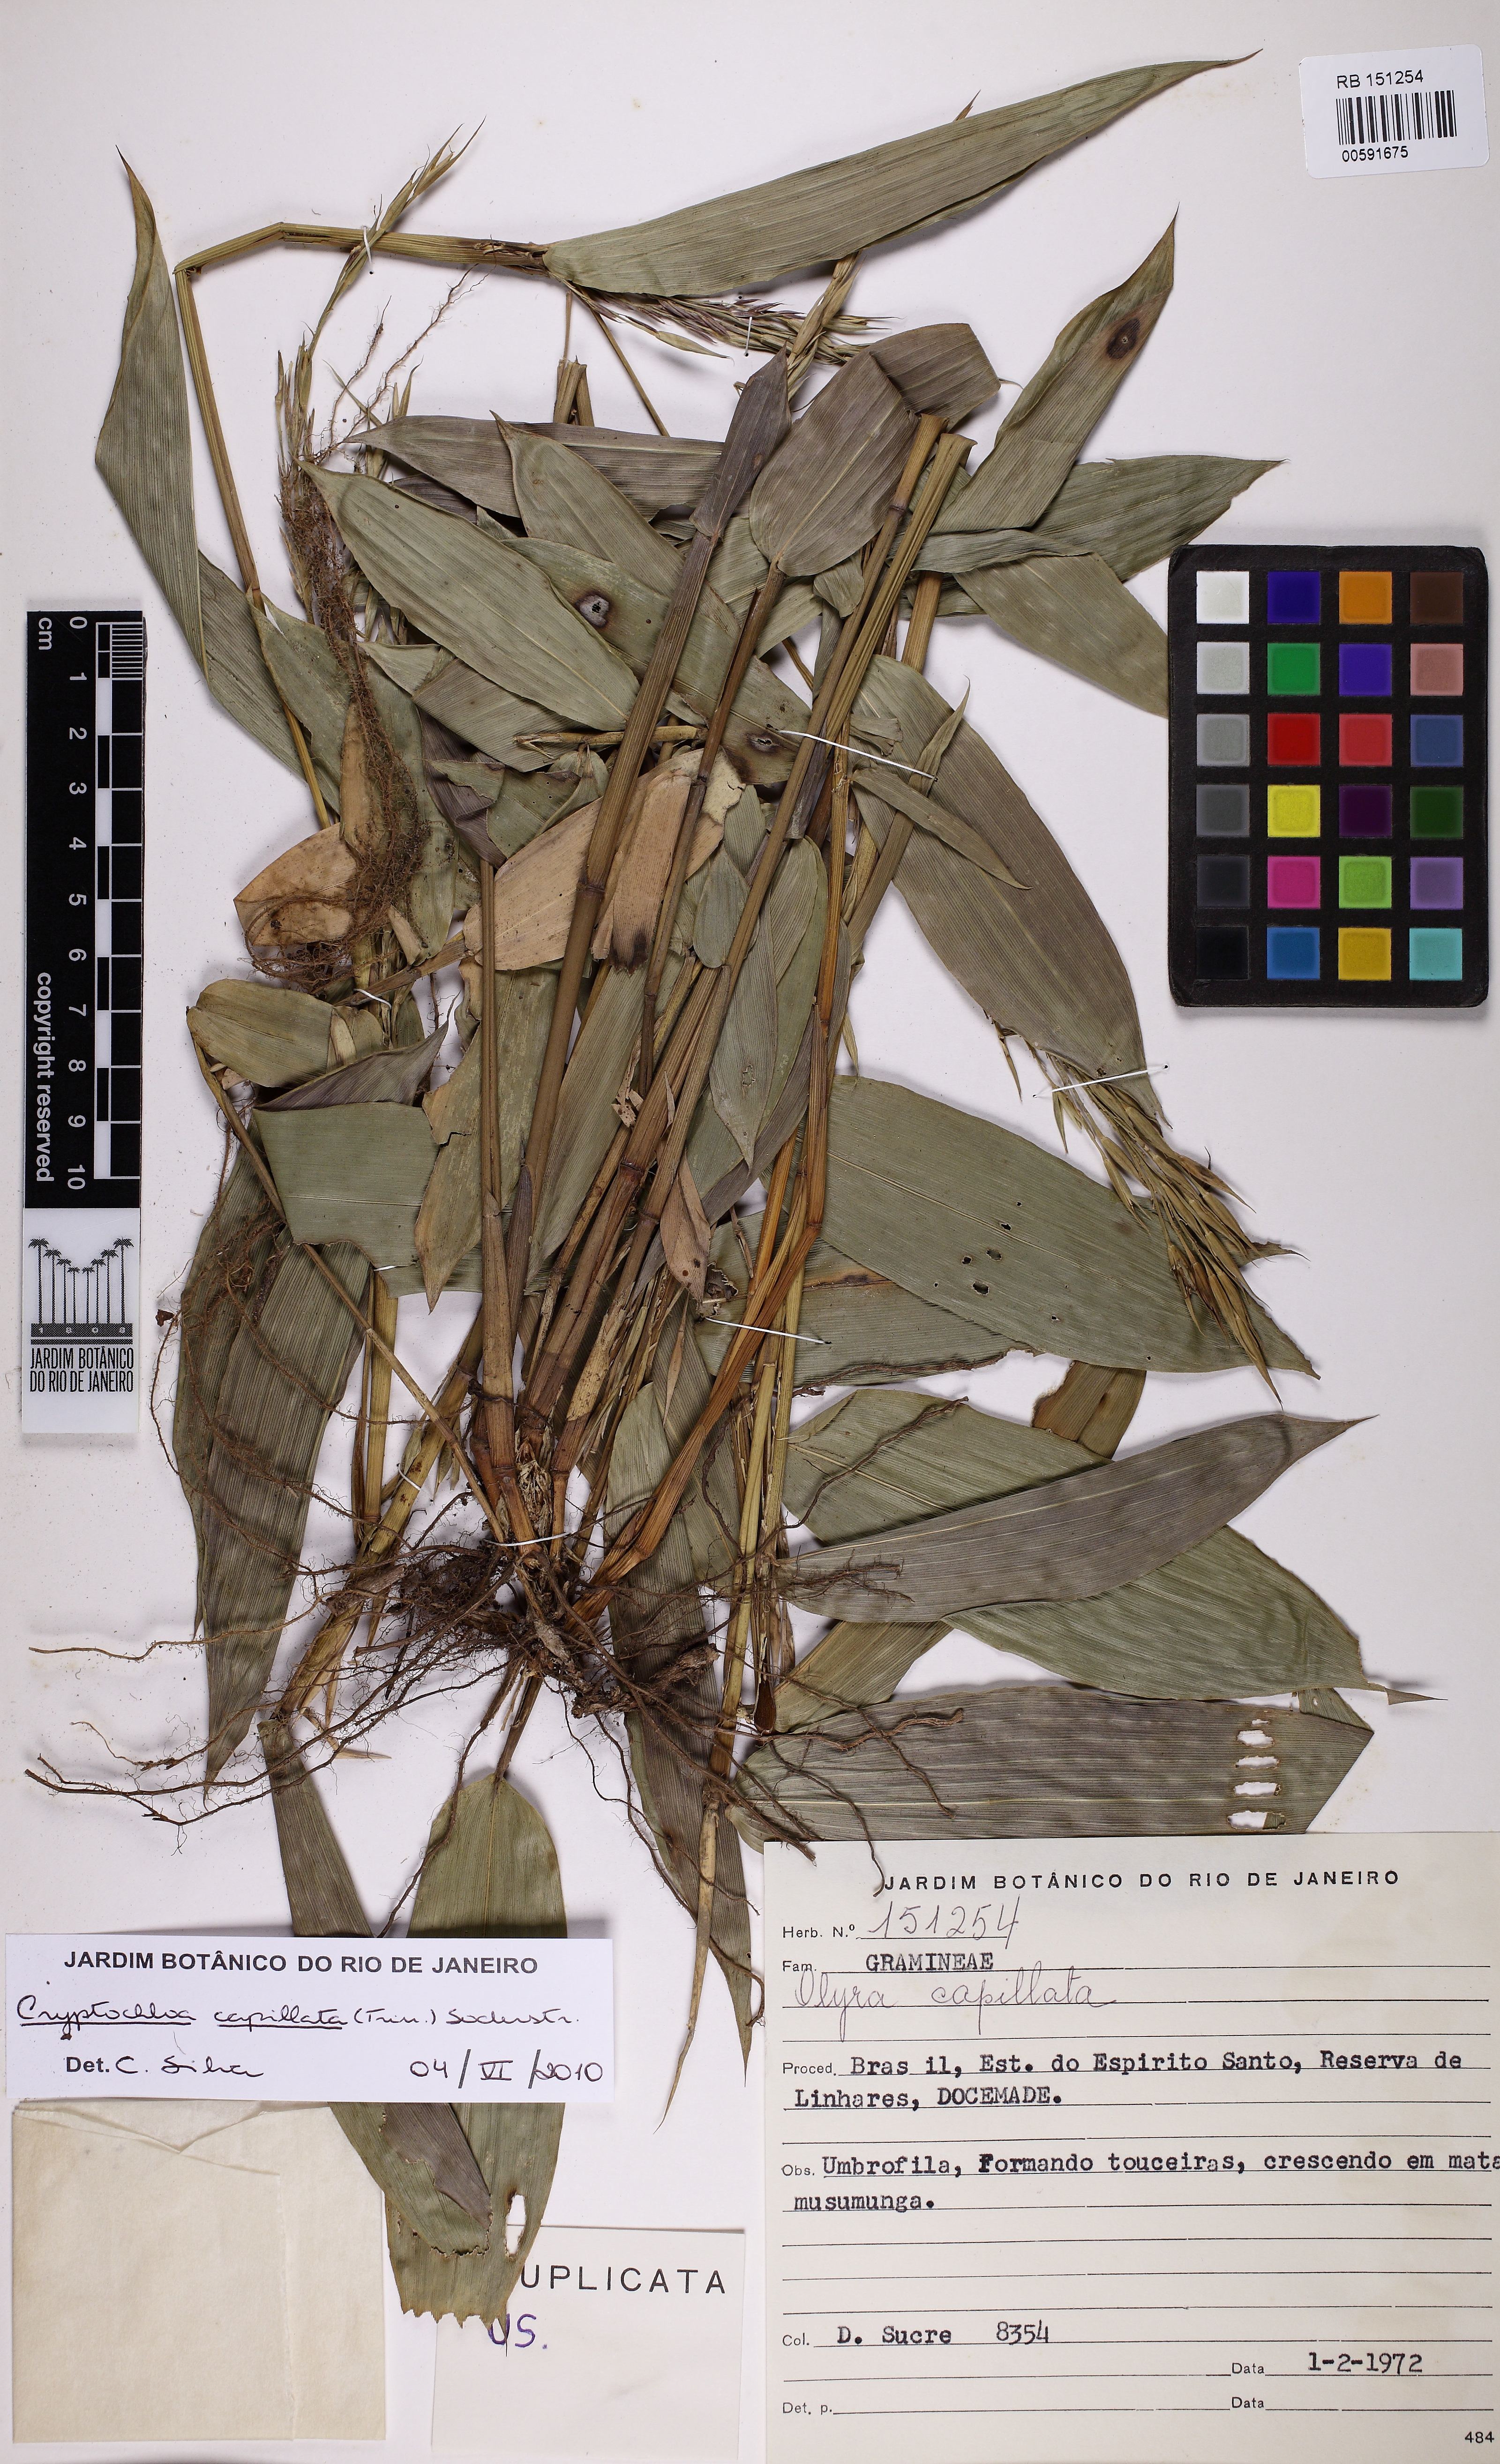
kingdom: Plantae
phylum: Tracheophyta
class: Liliopsida
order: Poales
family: Poaceae
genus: Cryptochloa
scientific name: Cryptochloa capillata
